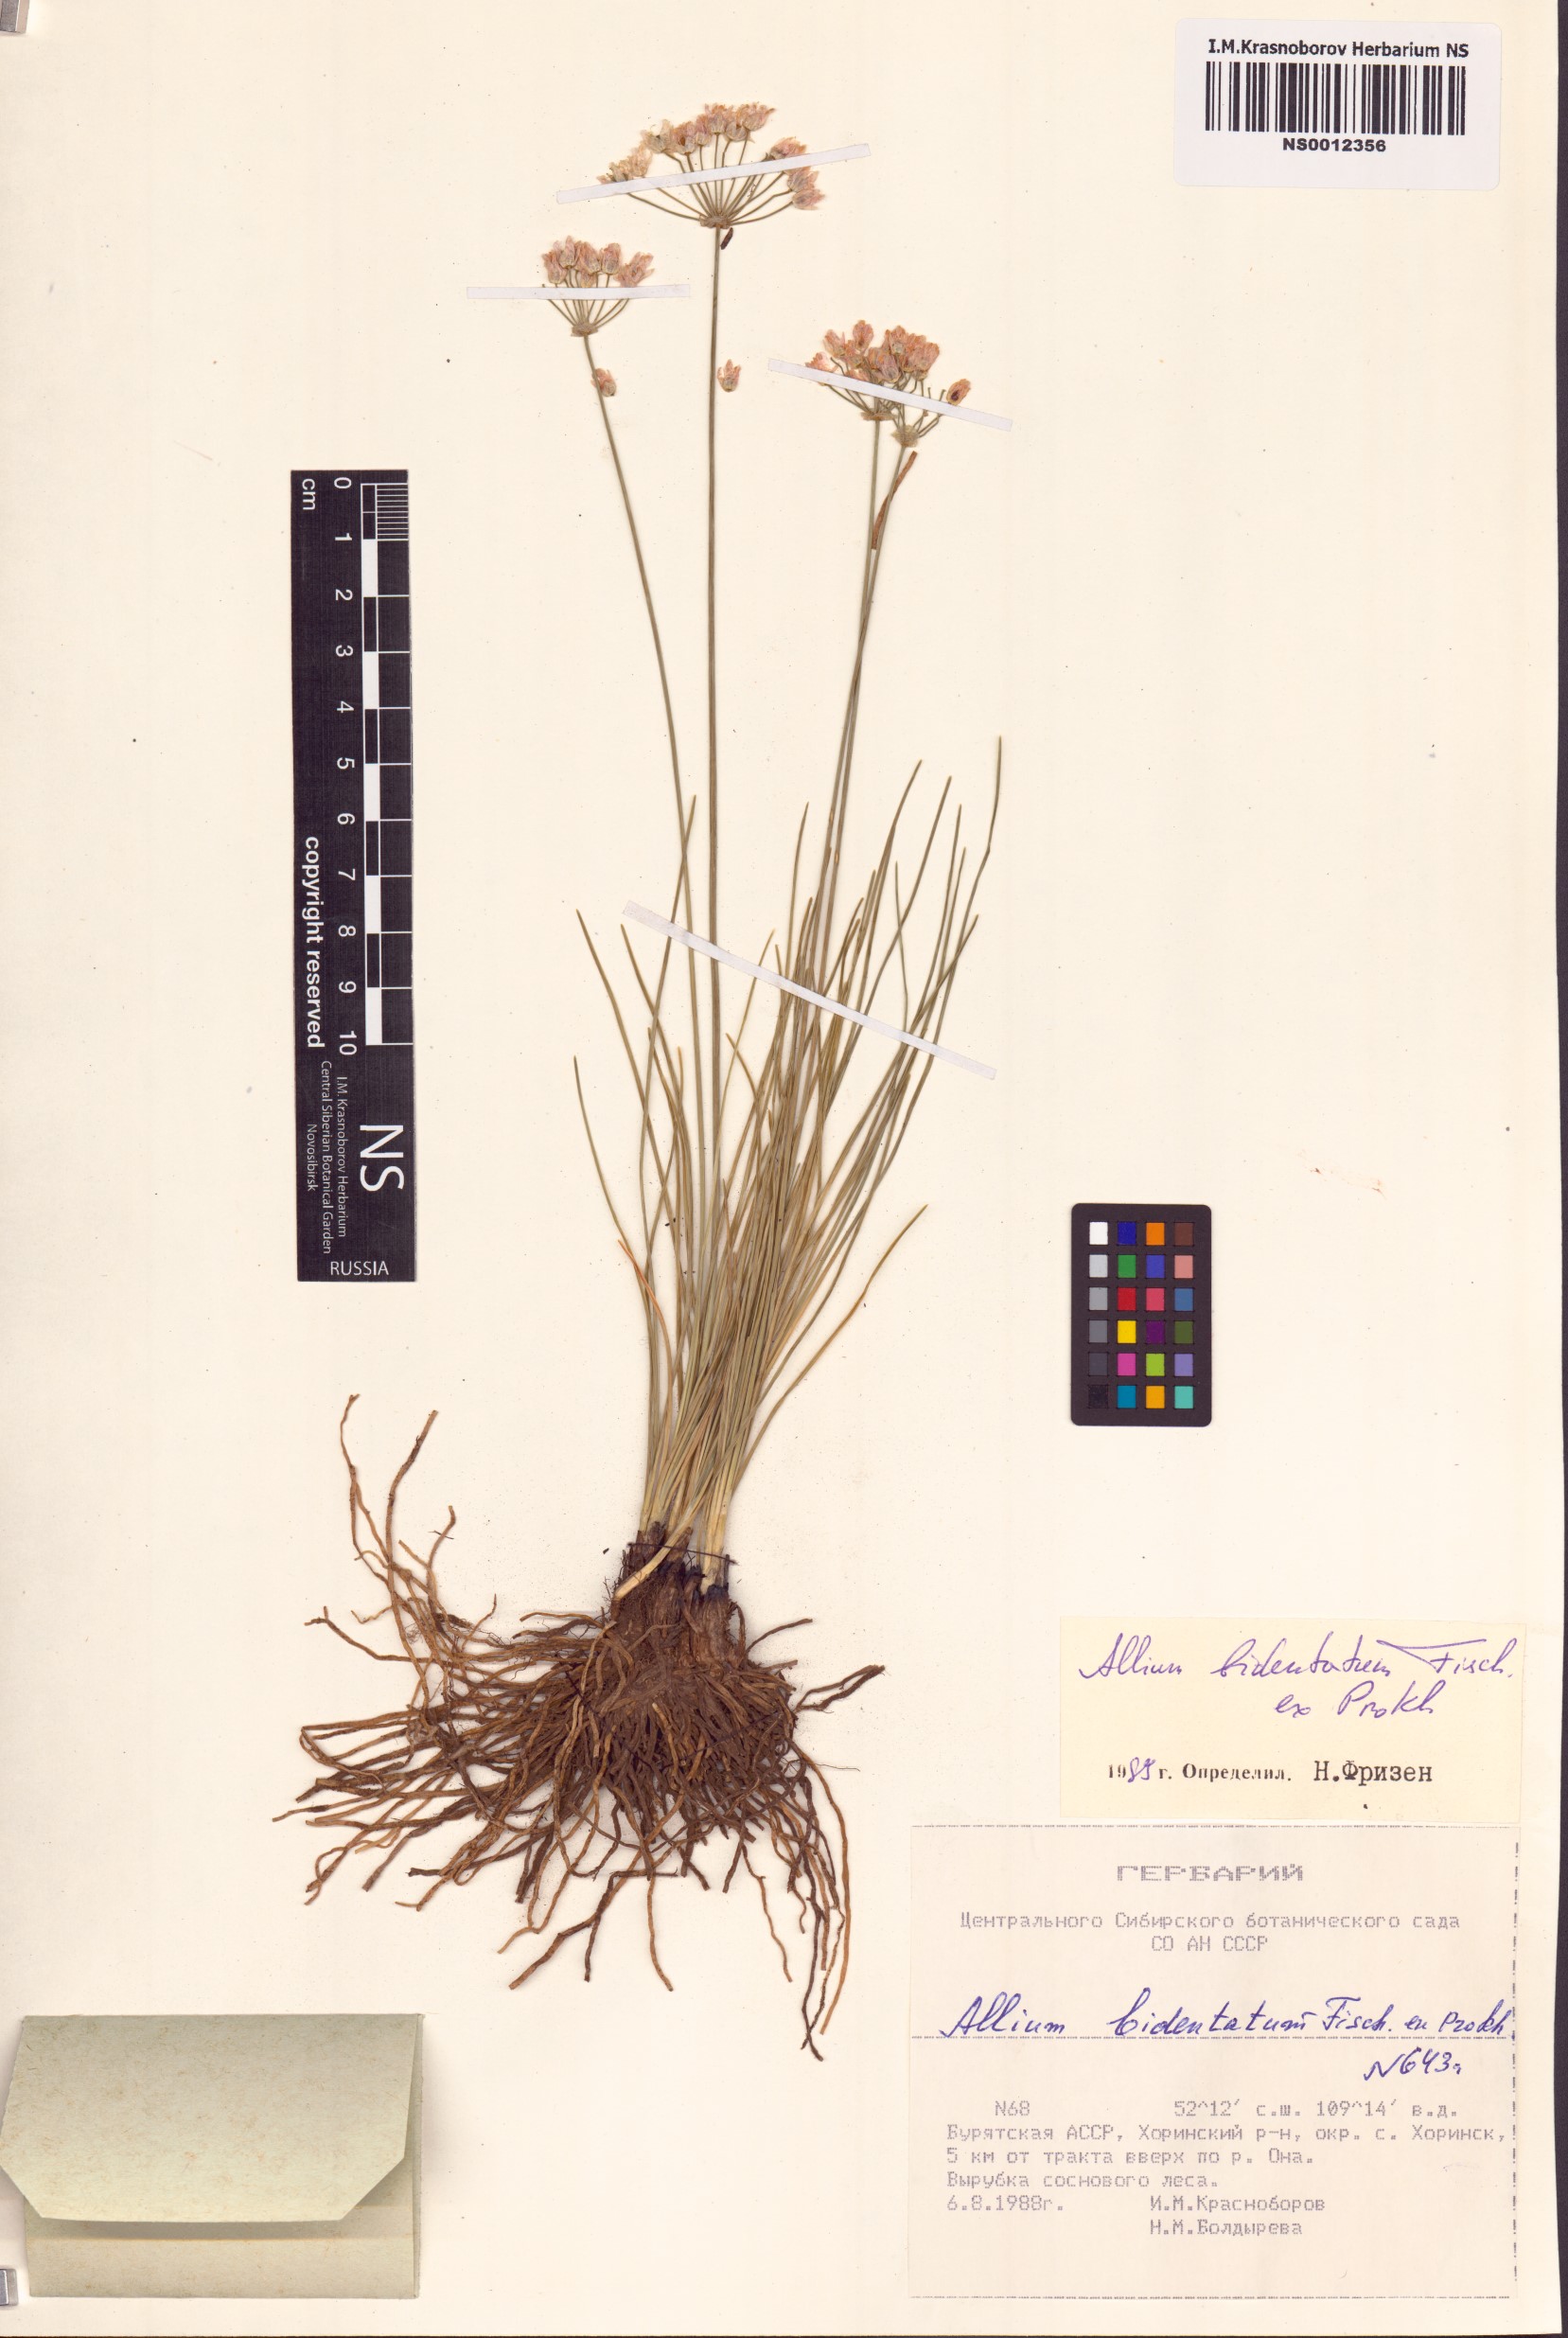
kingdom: Plantae
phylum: Tracheophyta
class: Liliopsida
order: Asparagales
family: Amaryllidaceae
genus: Allium
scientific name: Allium bidentatum
